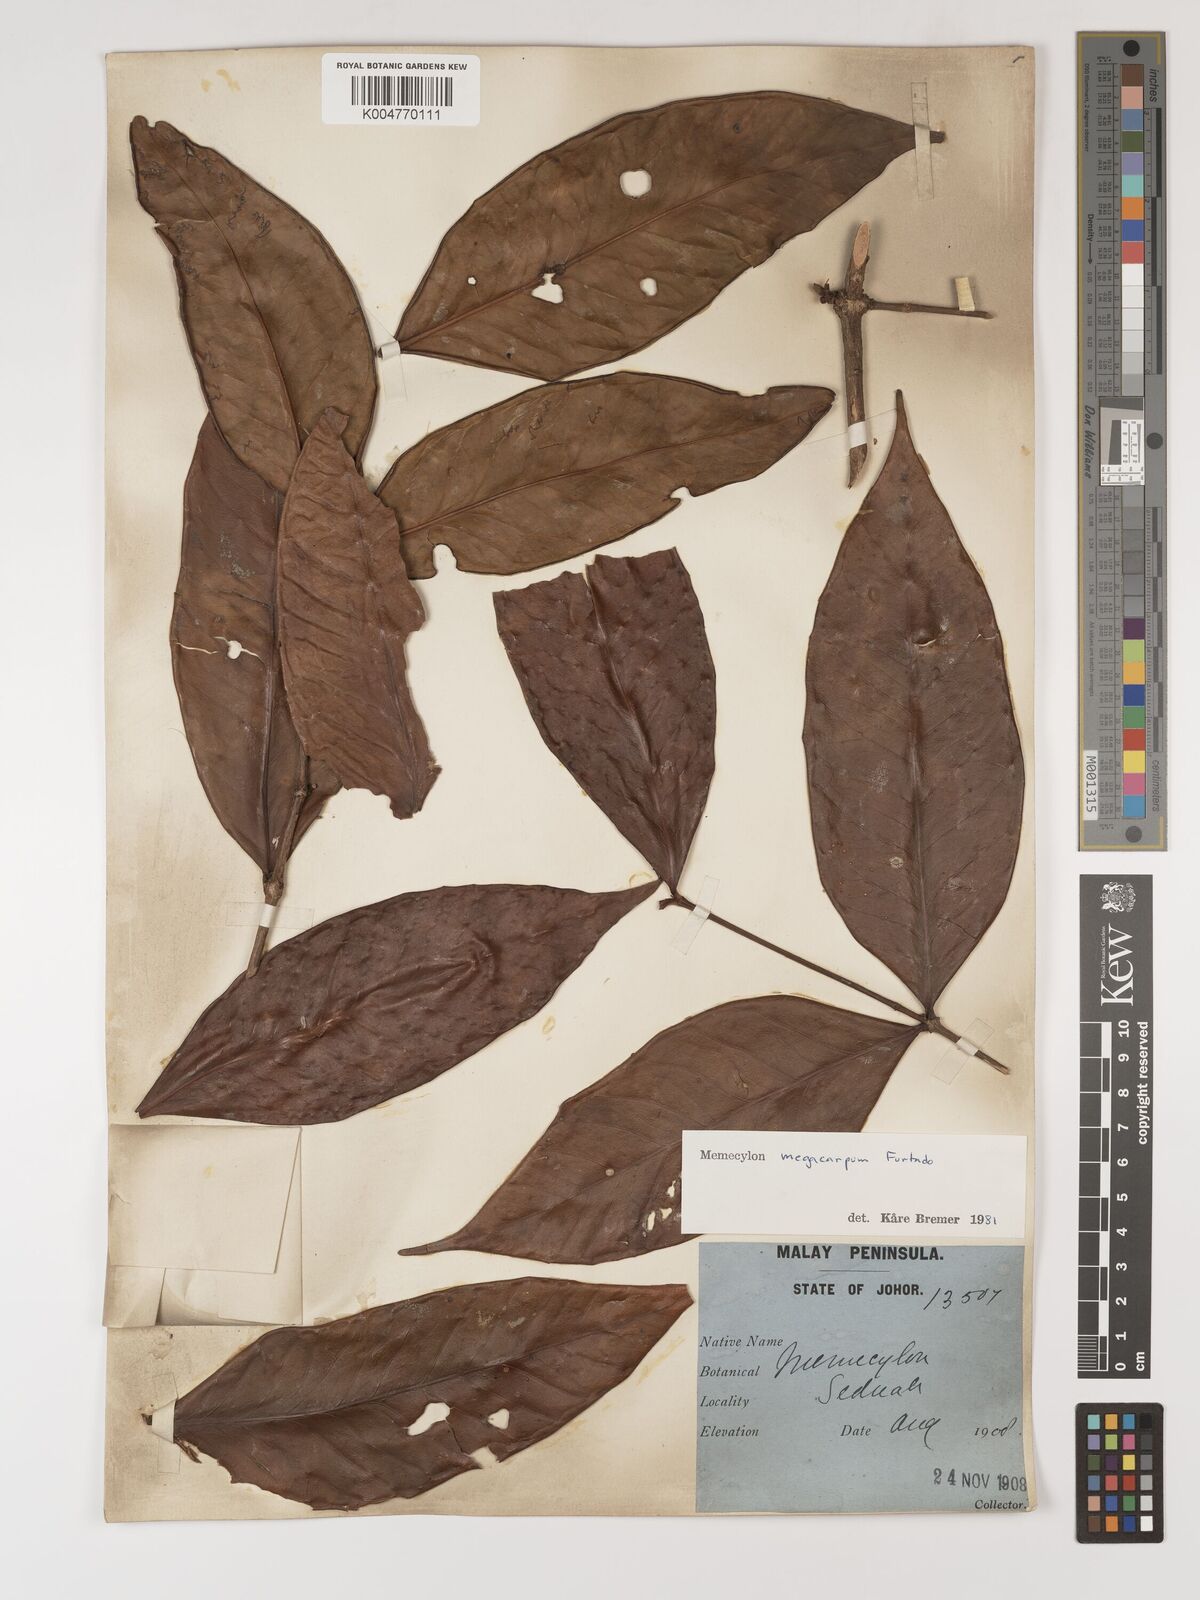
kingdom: Plantae
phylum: Tracheophyta
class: Magnoliopsida
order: Myrtales
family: Melastomataceae
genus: Memecylon
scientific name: Memecylon megacarpum
